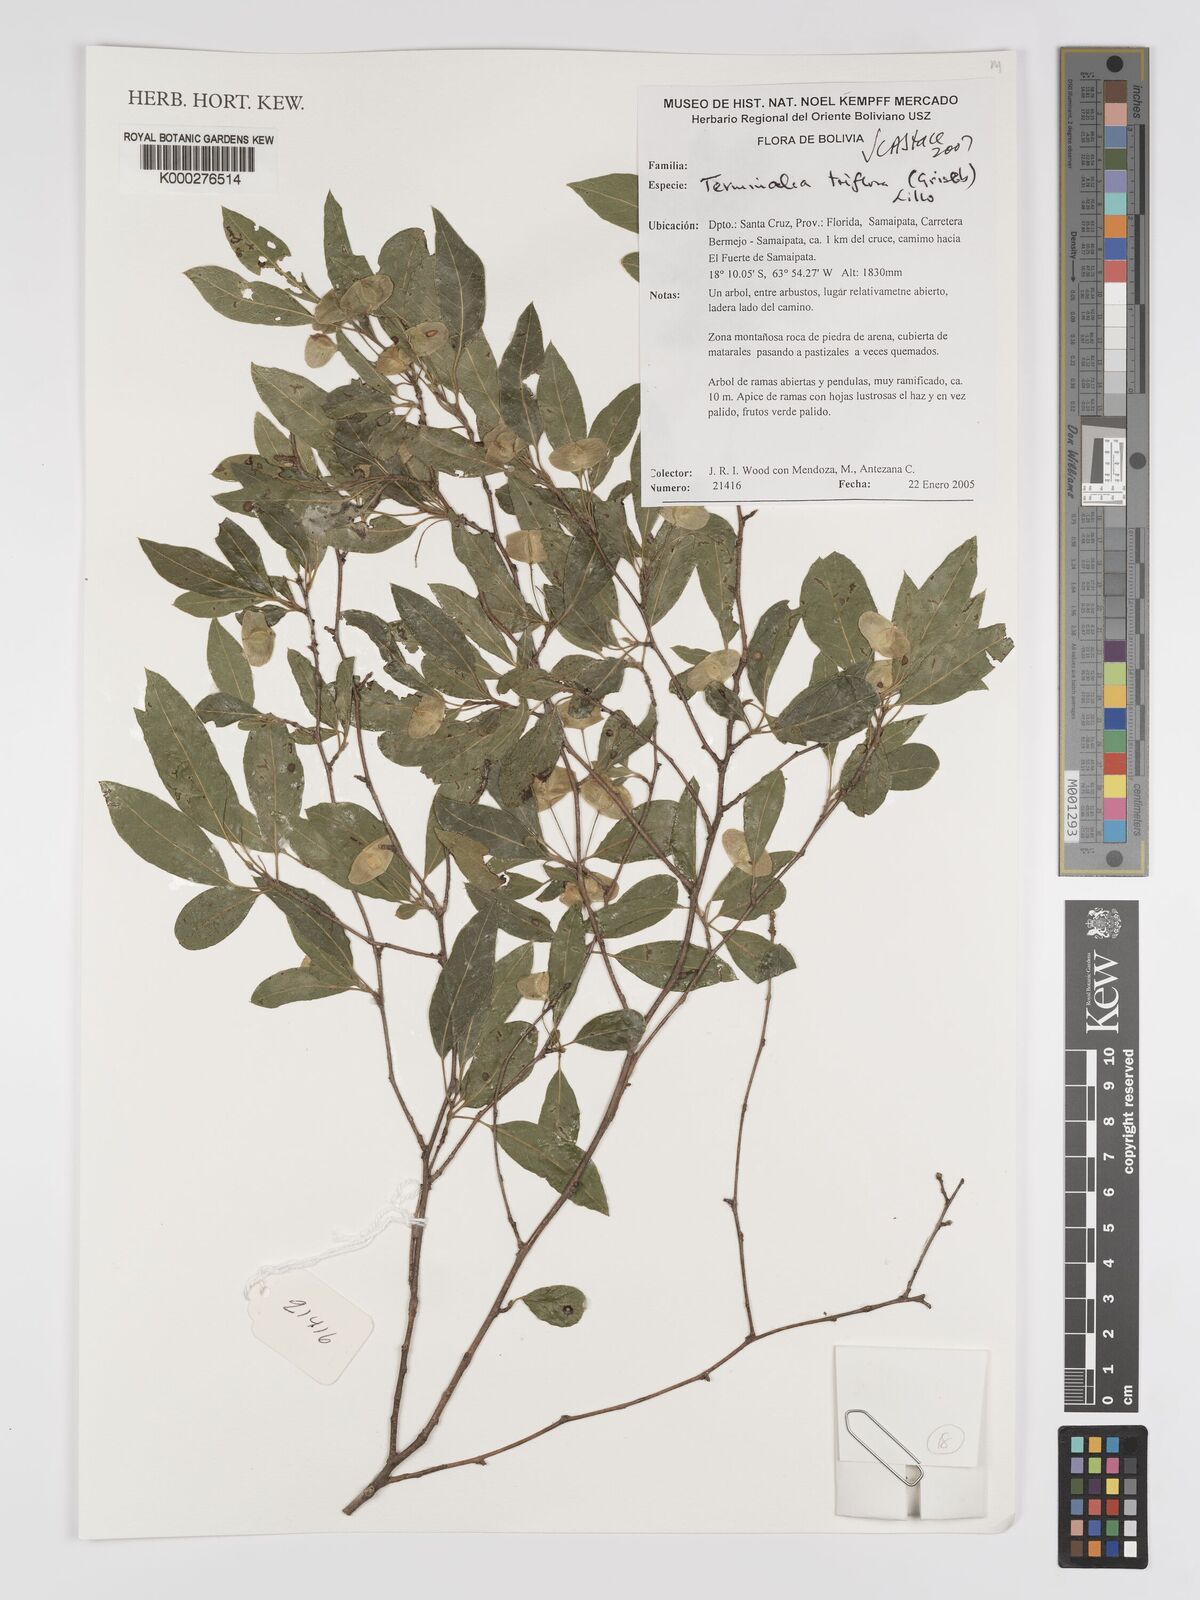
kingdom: Plantae
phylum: Tracheophyta
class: Magnoliopsida
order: Myrtales
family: Combretaceae
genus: Terminalia
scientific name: Terminalia triflora
